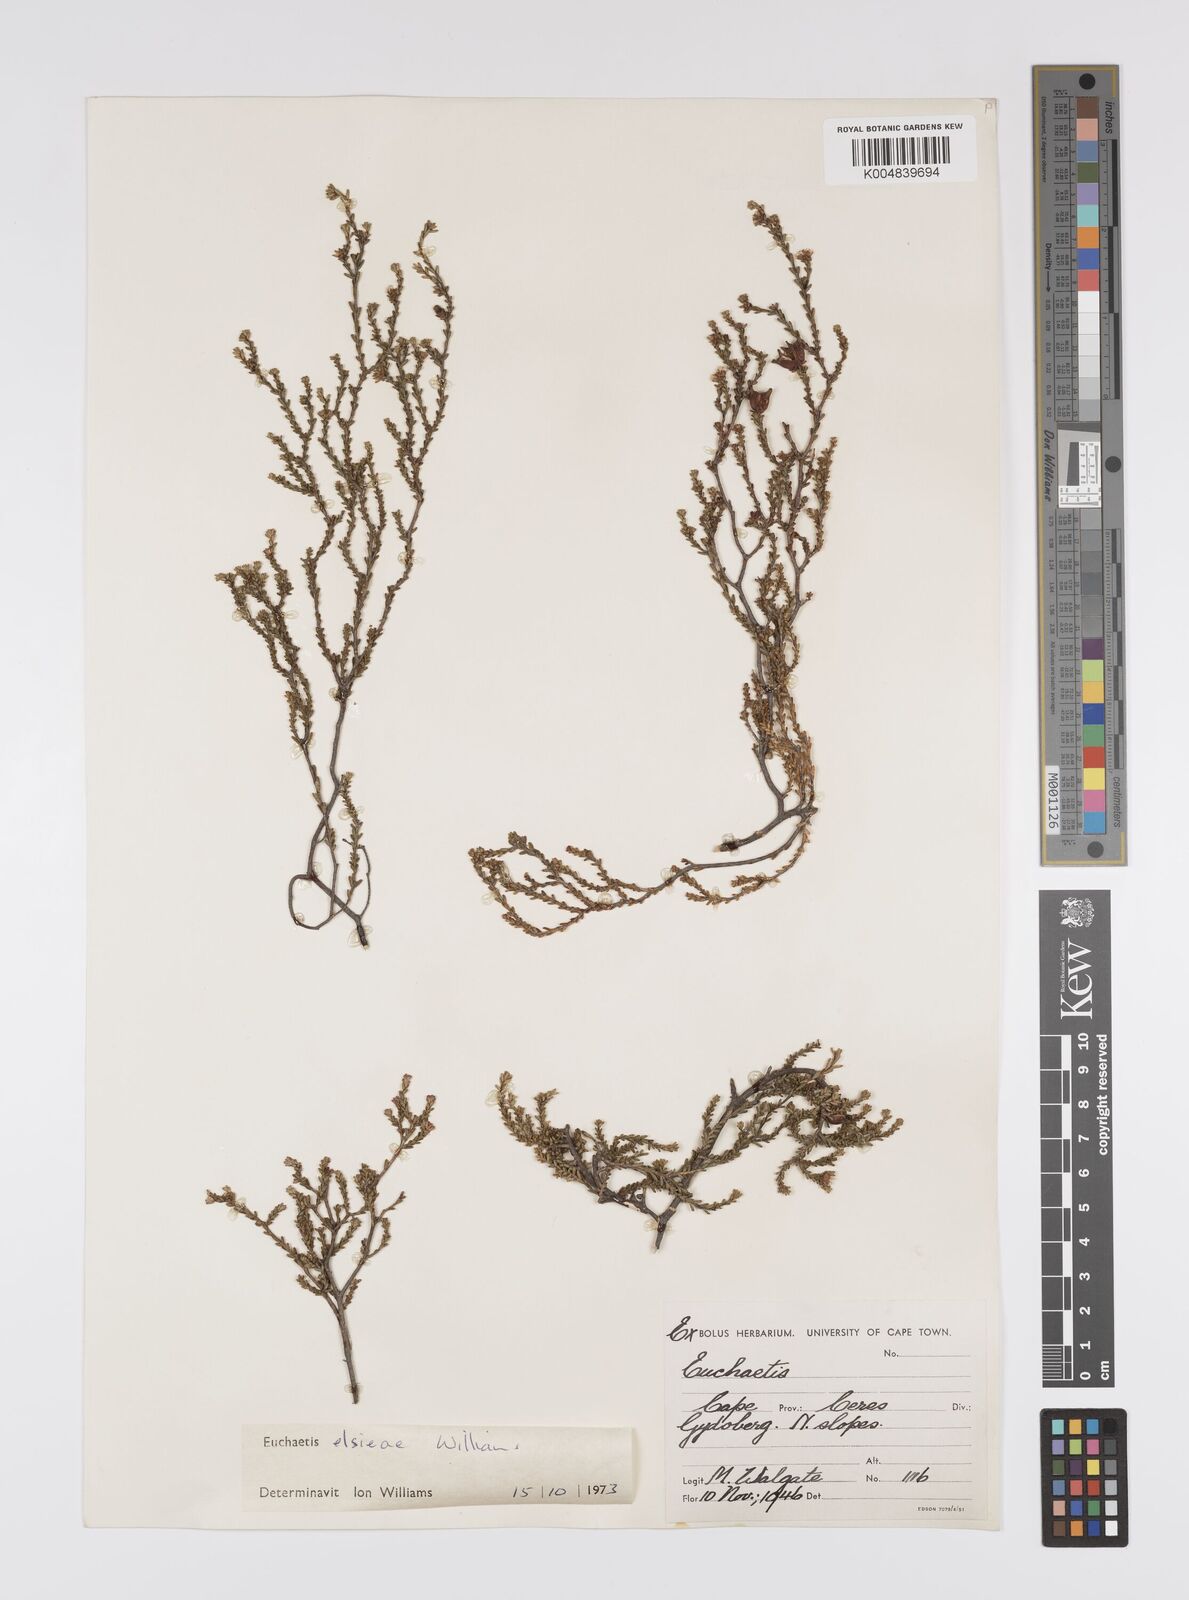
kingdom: Plantae
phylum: Tracheophyta
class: Magnoliopsida
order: Sapindales
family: Rutaceae
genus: Euchaetis
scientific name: Euchaetis elsieae
